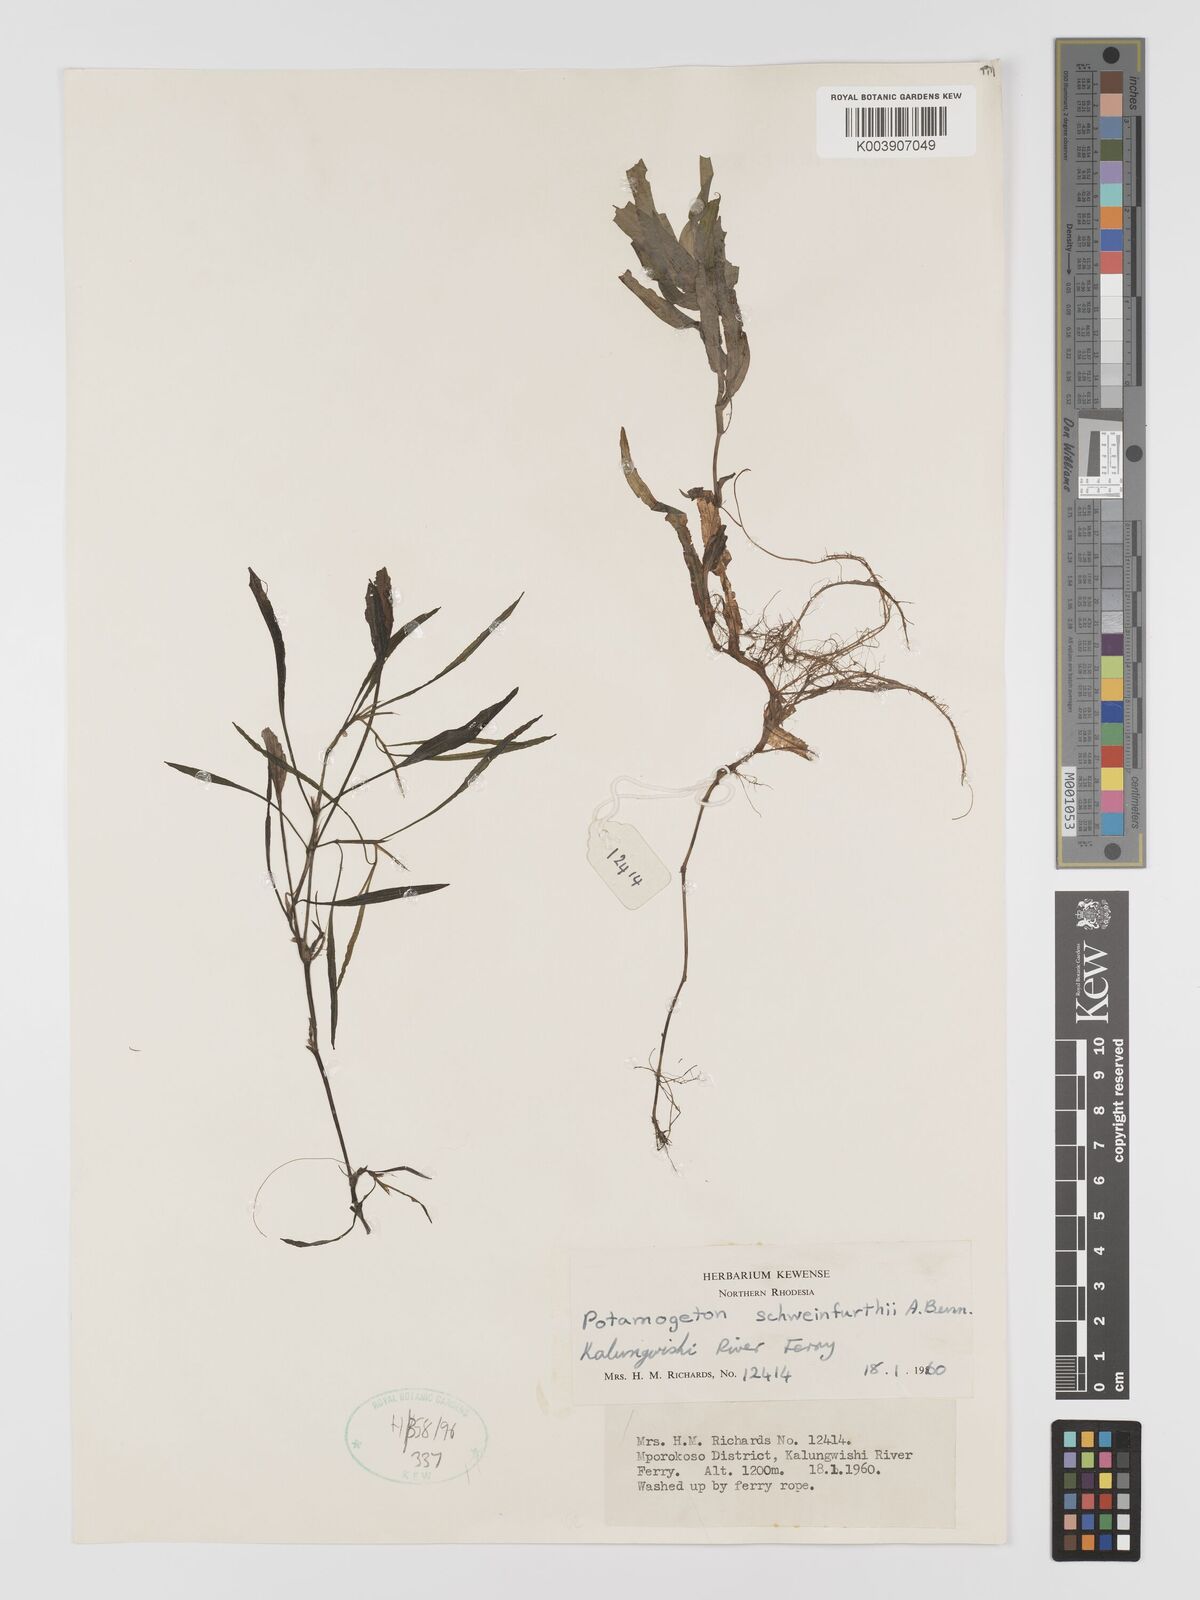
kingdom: Plantae
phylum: Tracheophyta
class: Liliopsida
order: Alismatales
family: Potamogetonaceae
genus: Potamogeton
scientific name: Potamogeton schweinfurthii
